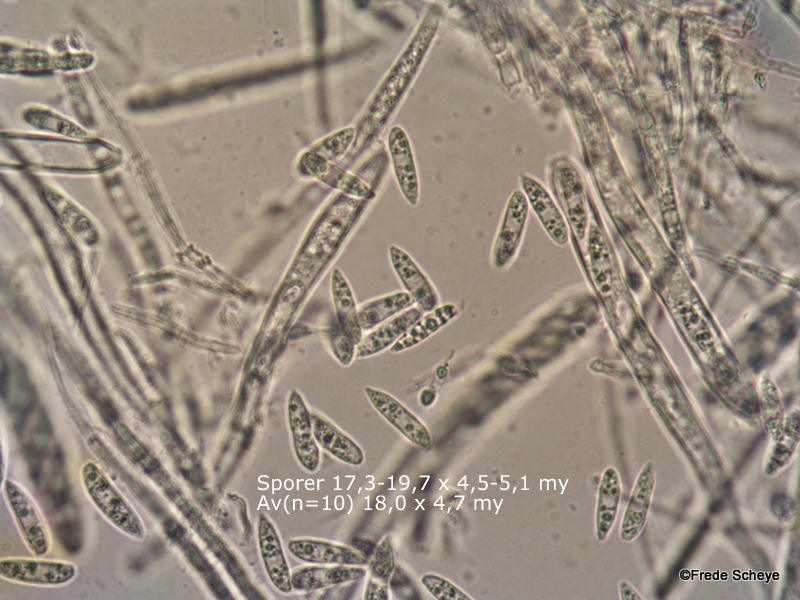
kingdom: Fungi
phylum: Ascomycota
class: Leotiomycetes
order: Helotiales
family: Helotiaceae
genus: Hymenoscyphus
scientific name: Hymenoscyphus fructigenus
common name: frugt-stilkskive
